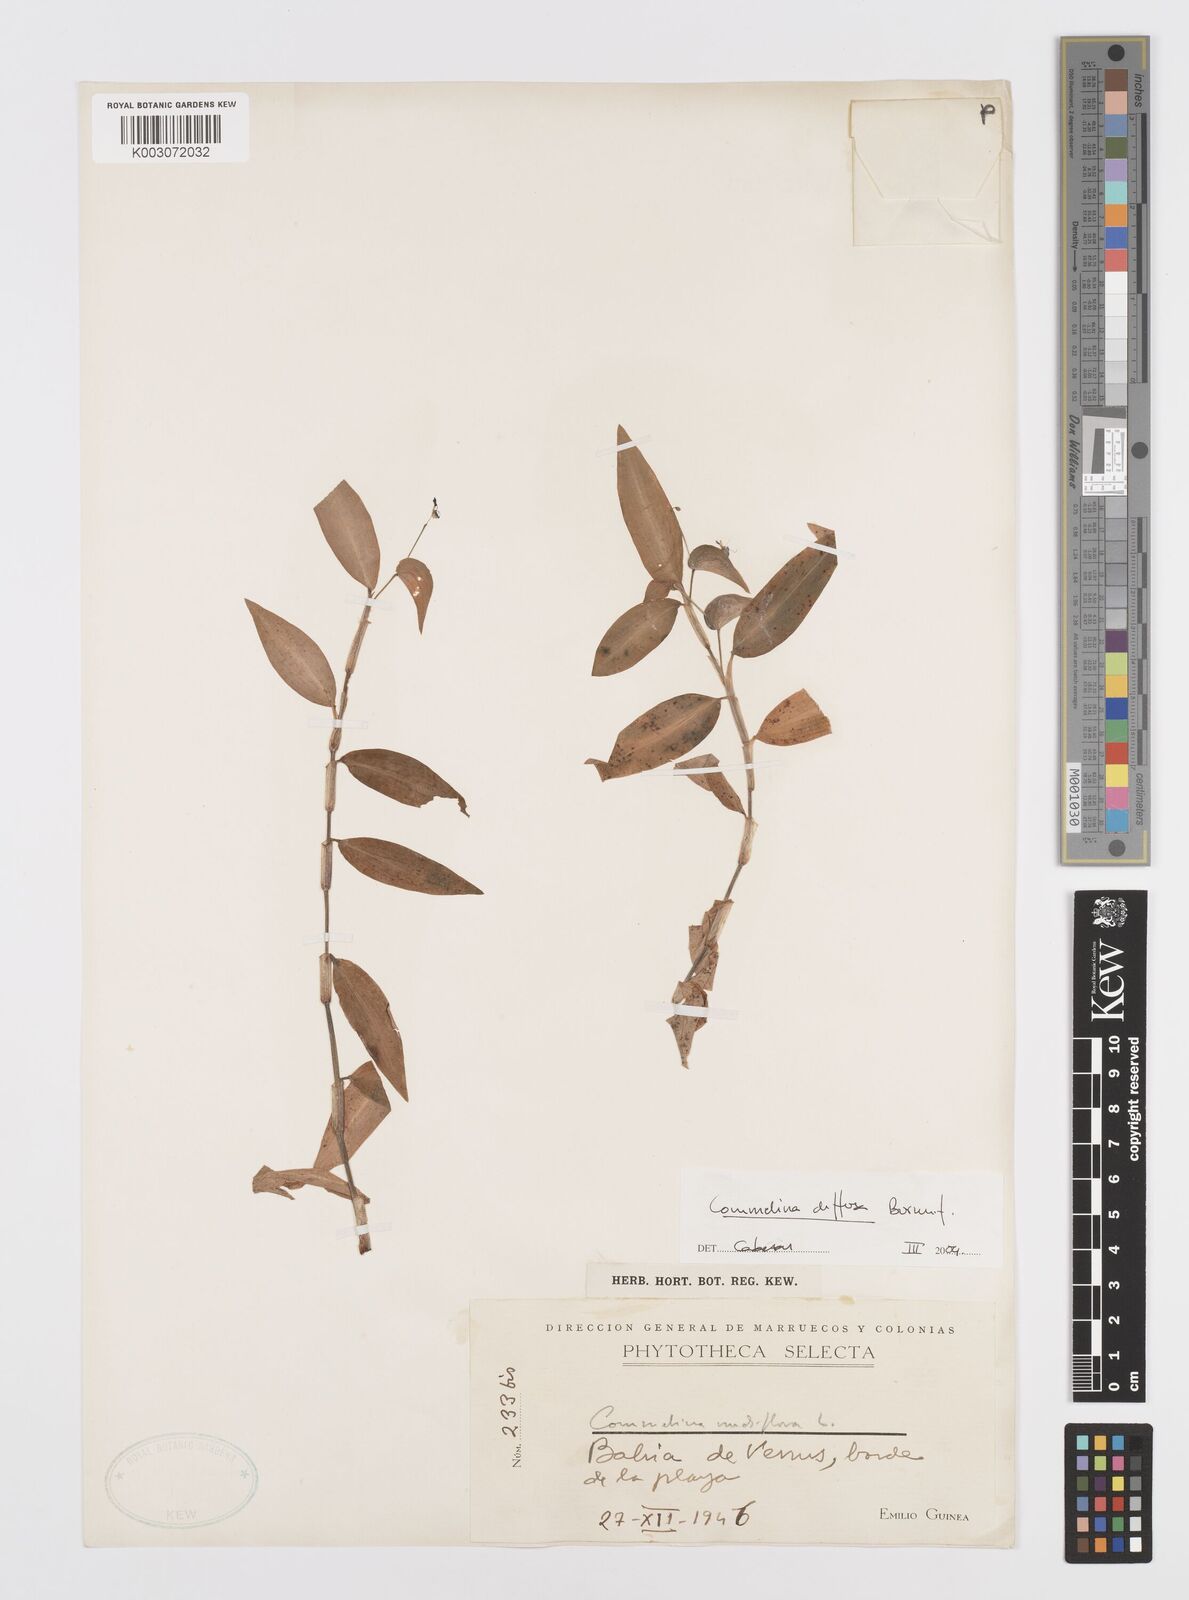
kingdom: Plantae
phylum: Tracheophyta
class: Liliopsida
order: Commelinales
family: Commelinaceae
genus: Commelina
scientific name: Commelina diffusa
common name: Climbing dayflower
